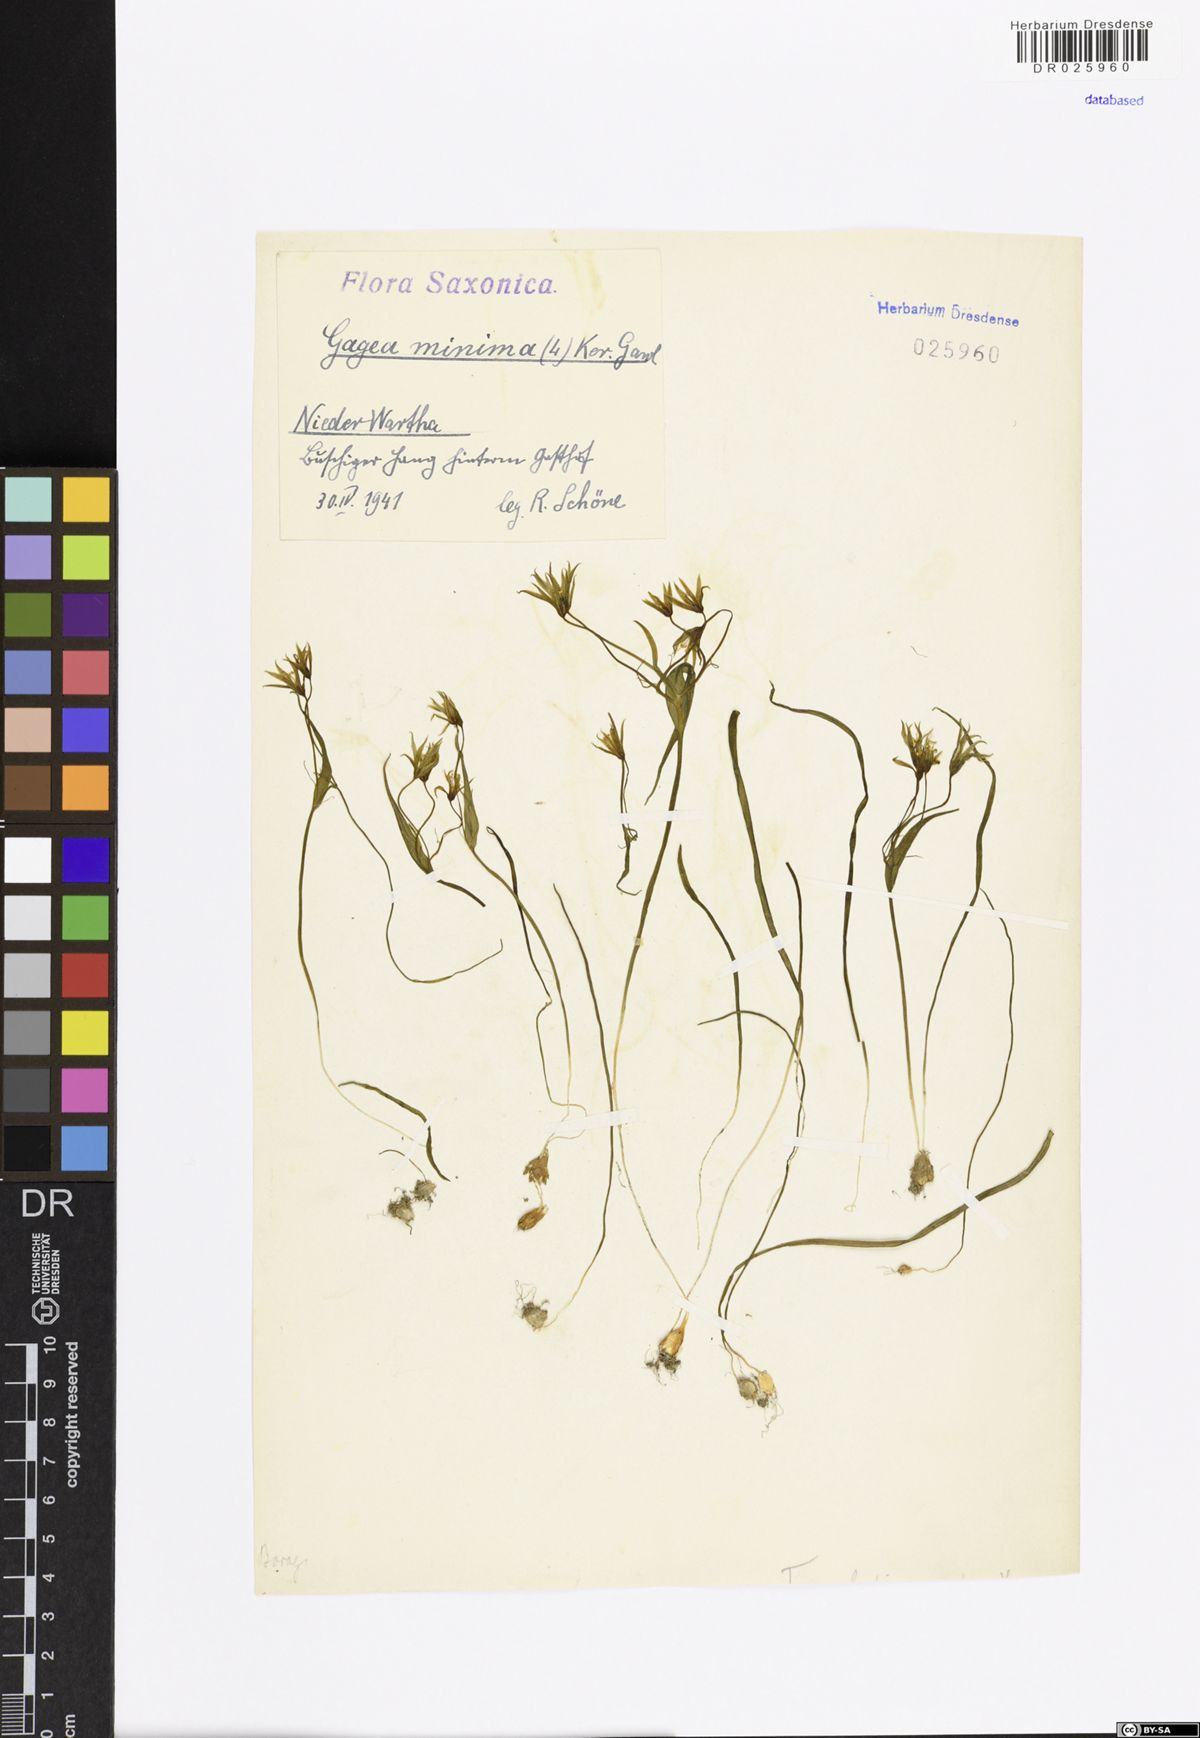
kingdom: Plantae
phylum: Tracheophyta
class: Liliopsida
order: Liliales
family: Liliaceae
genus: Gagea
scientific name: Gagea minima
